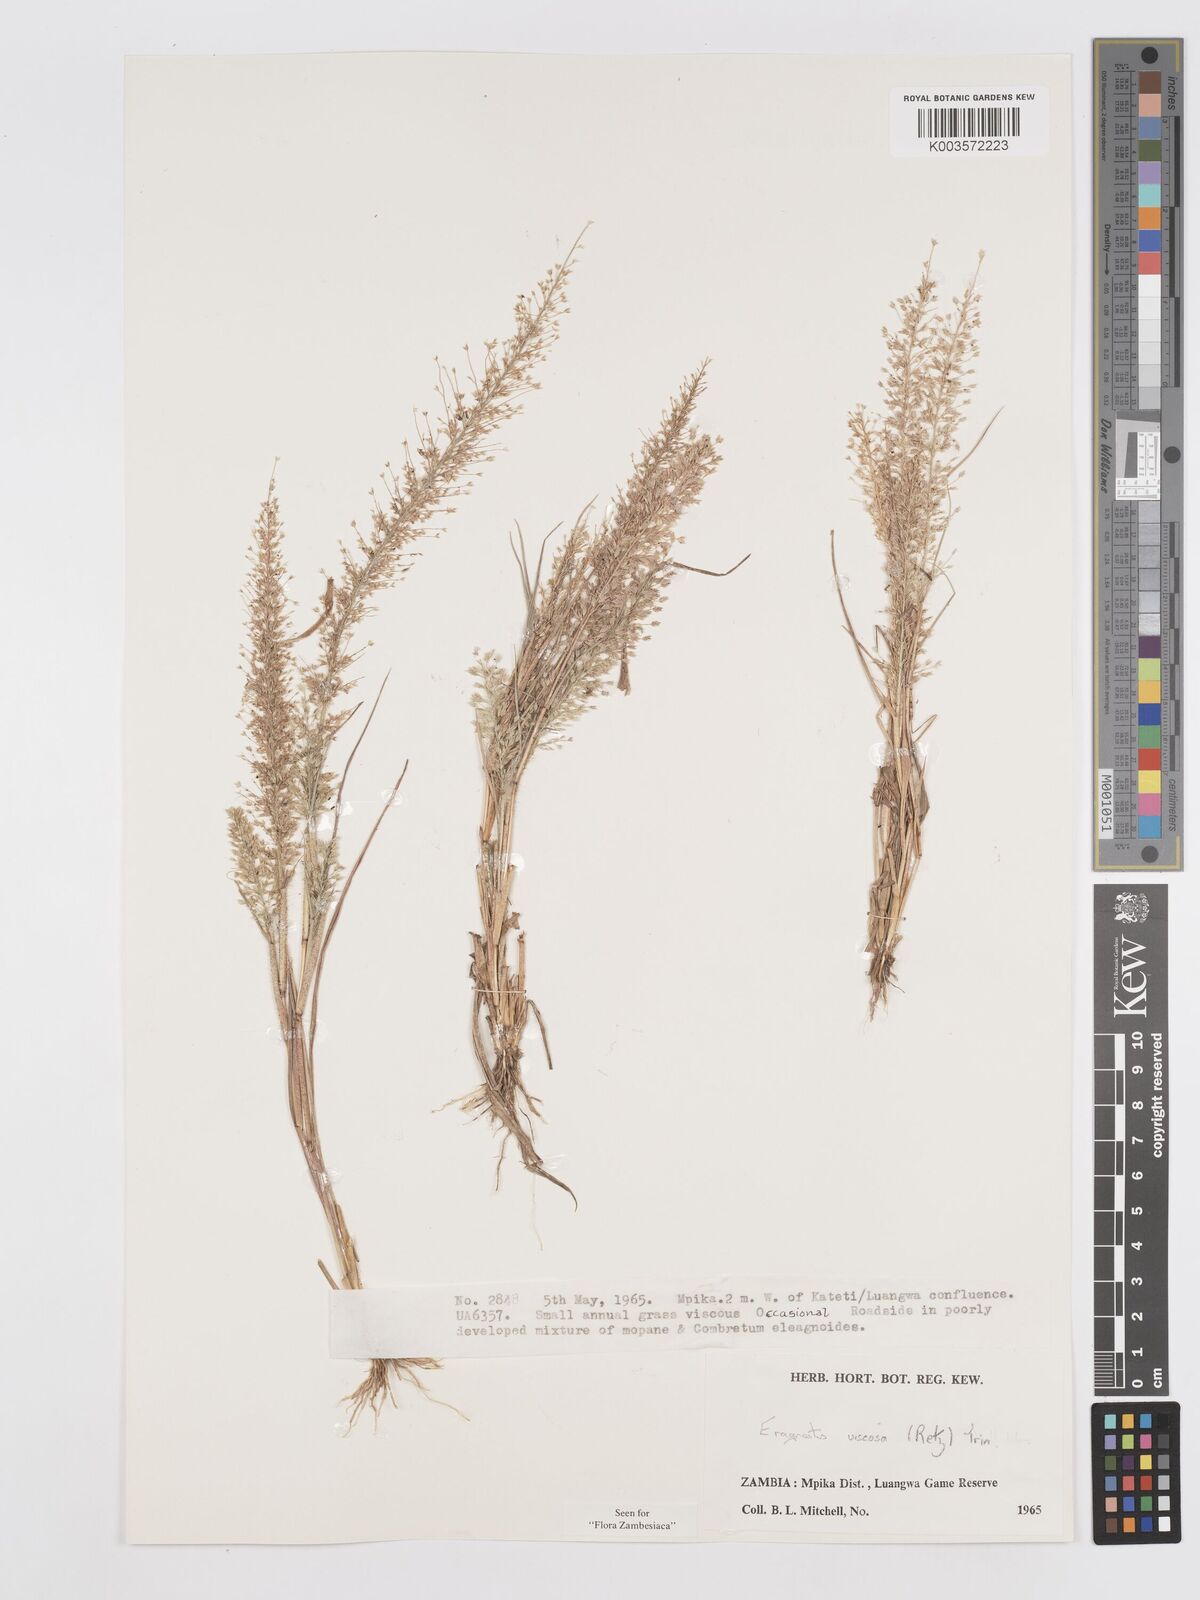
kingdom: Plantae
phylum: Tracheophyta
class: Liliopsida
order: Poales
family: Poaceae
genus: Eragrostis
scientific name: Eragrostis
